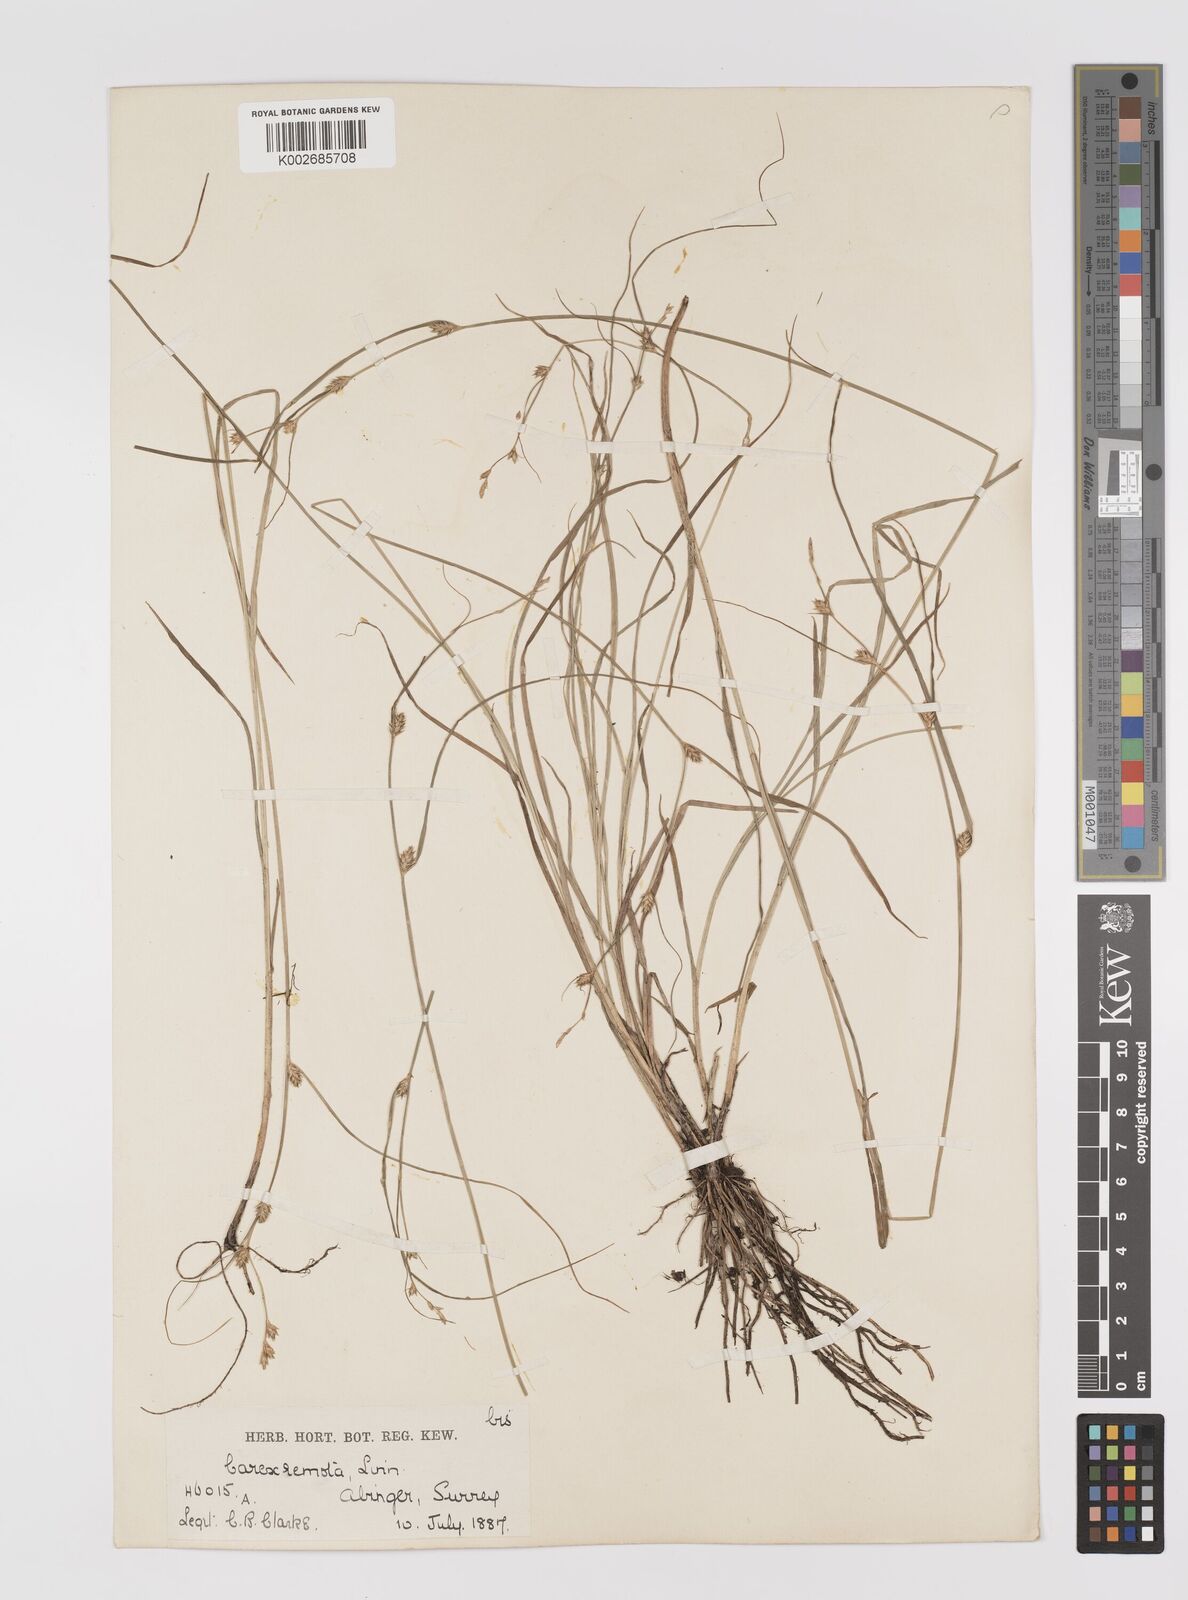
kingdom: Plantae
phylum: Tracheophyta
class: Liliopsida
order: Poales
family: Cyperaceae
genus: Carex
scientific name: Carex remota
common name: Remote sedge
